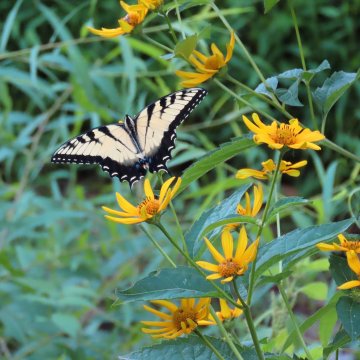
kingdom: Animalia
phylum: Arthropoda
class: Insecta
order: Lepidoptera
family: Papilionidae
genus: Pterourus
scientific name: Pterourus glaucus
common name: Eastern Tiger Swallowtail
